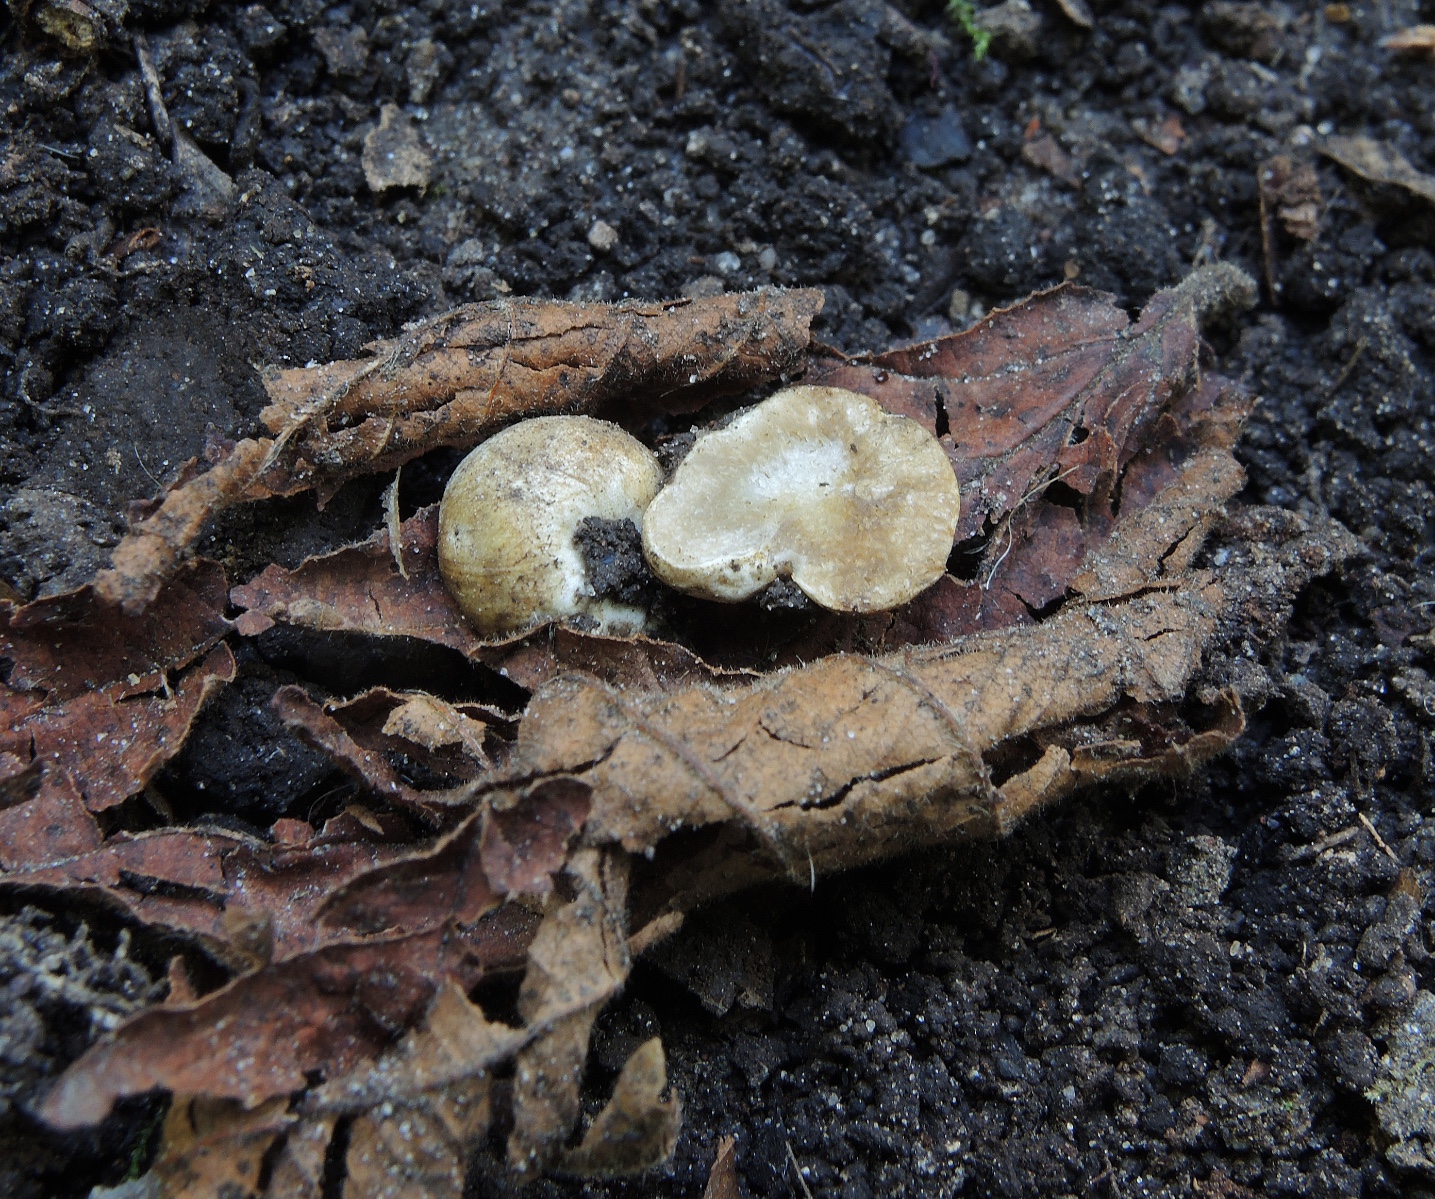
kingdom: Fungi
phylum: Basidiomycota
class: Agaricomycetes
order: Agaricales
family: Hymenogastraceae
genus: Hymenogaster
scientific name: Hymenogaster
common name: knoldtrøffel
